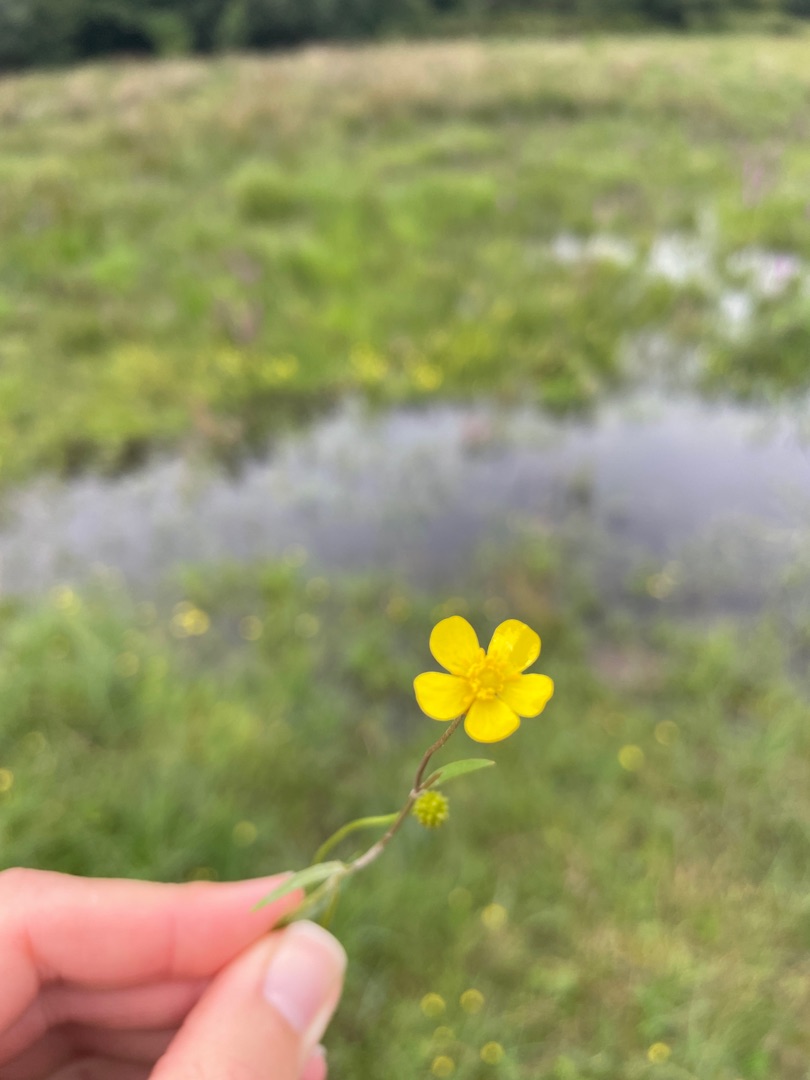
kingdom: Plantae
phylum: Tracheophyta
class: Magnoliopsida
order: Ranunculales
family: Ranunculaceae
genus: Ranunculus
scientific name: Ranunculus flammula
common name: Kær-ranunkel
